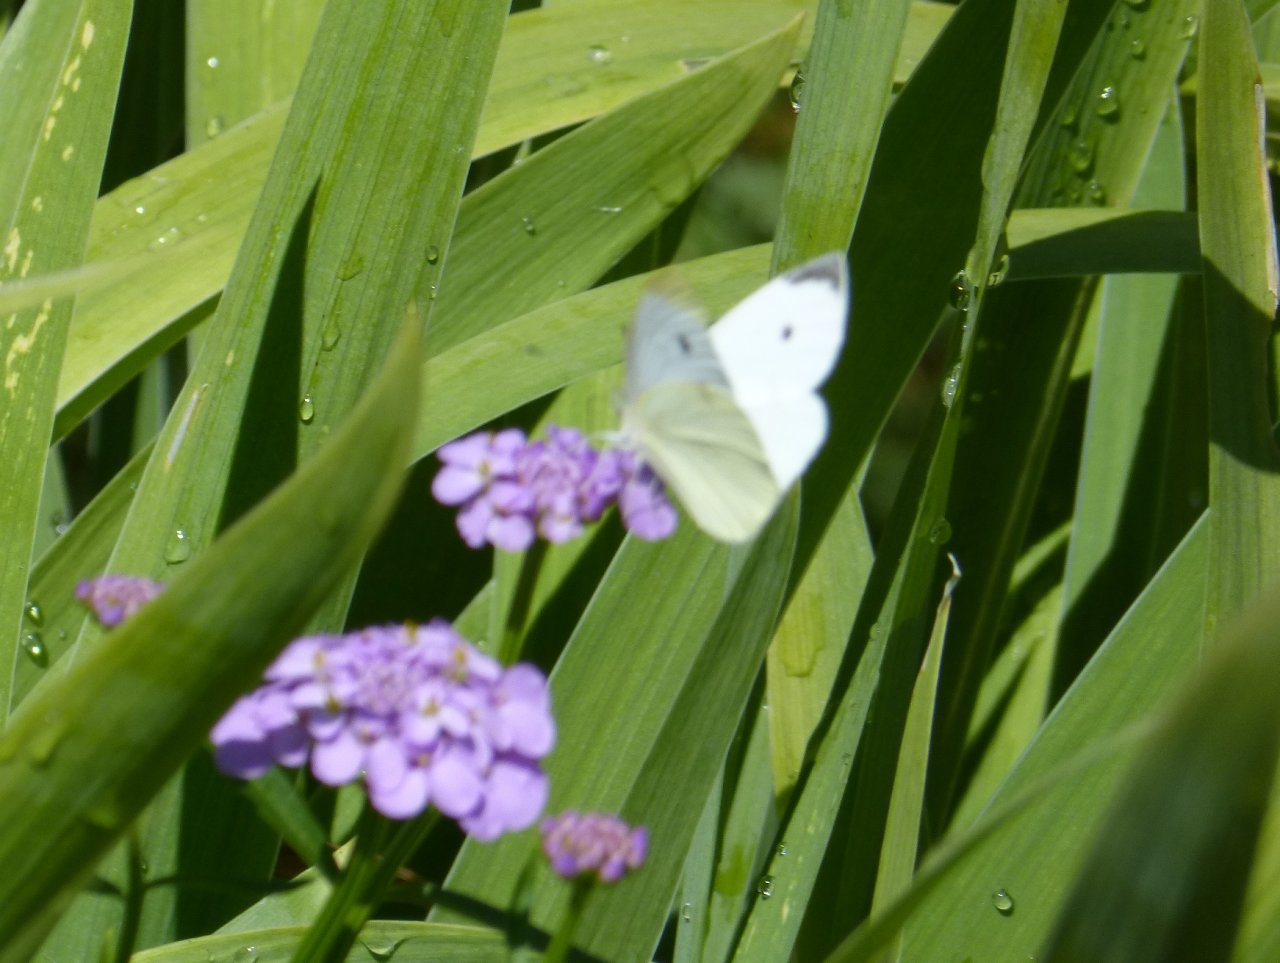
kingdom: Animalia
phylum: Arthropoda
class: Insecta
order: Lepidoptera
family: Pieridae
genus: Pieris
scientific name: Pieris rapae
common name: Cabbage White
